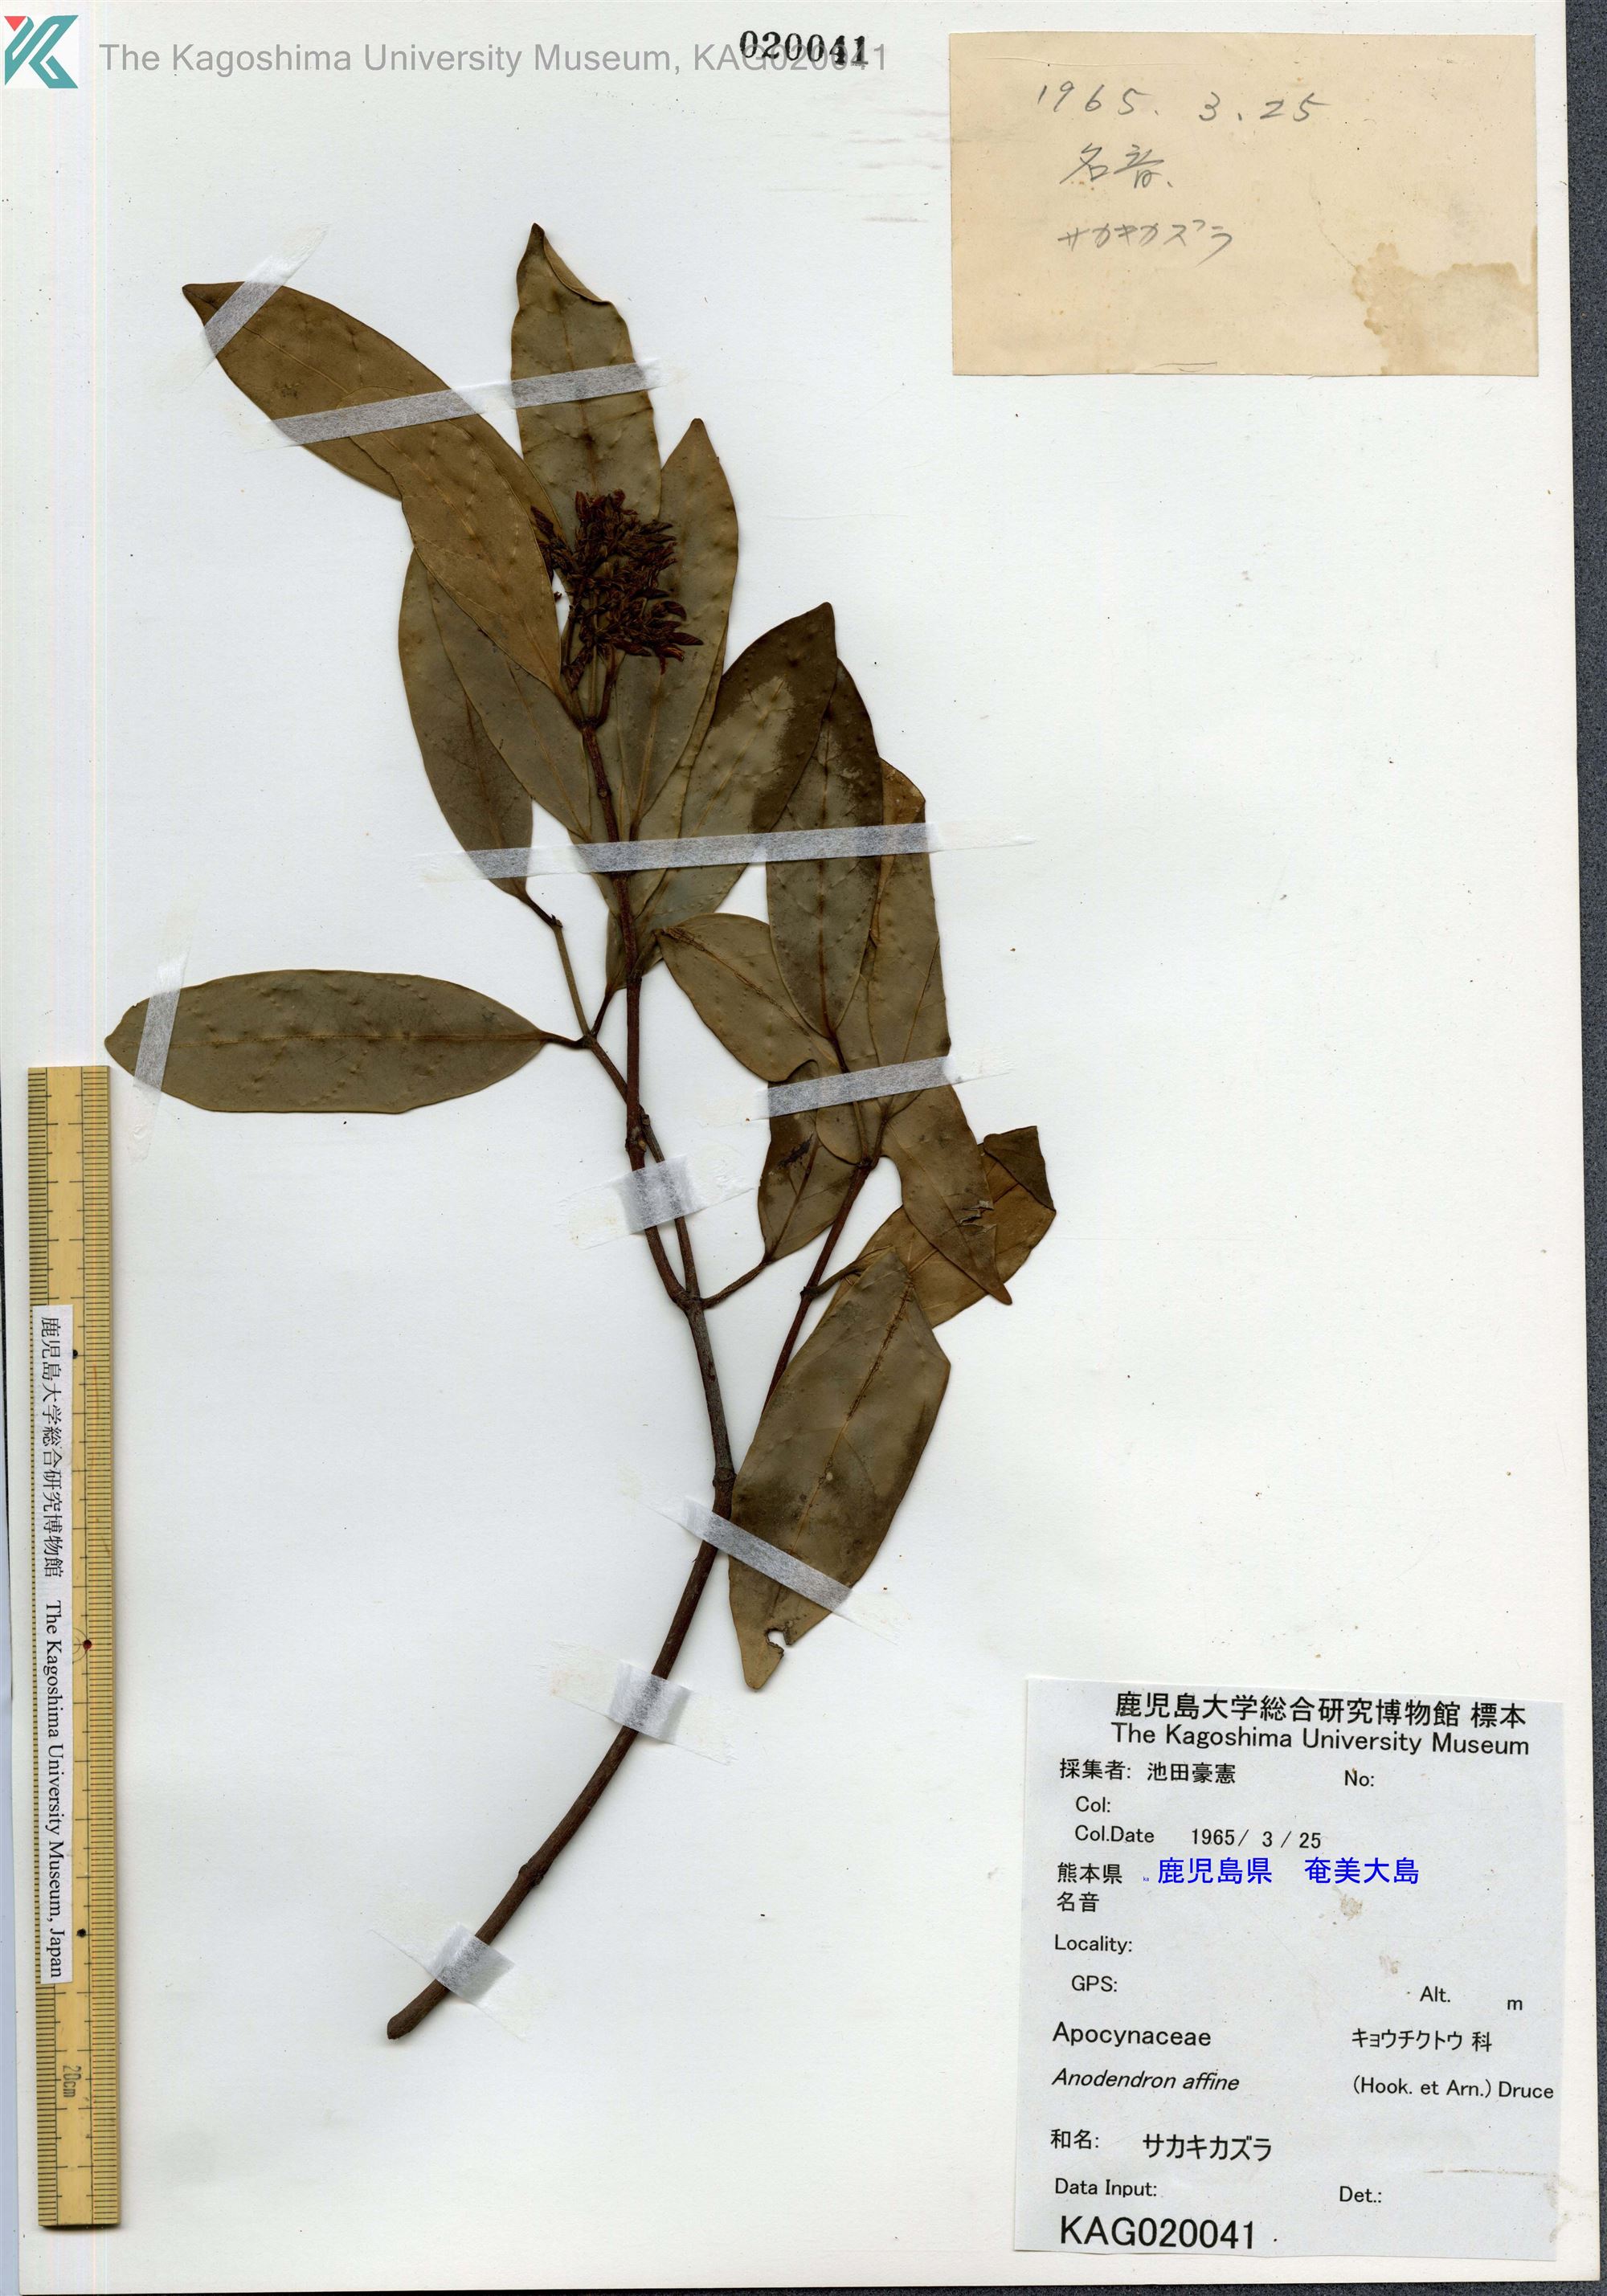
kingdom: Plantae
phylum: Tracheophyta
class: Magnoliopsida
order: Gentianales
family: Apocynaceae
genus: Anodendron
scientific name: Anodendron affine
